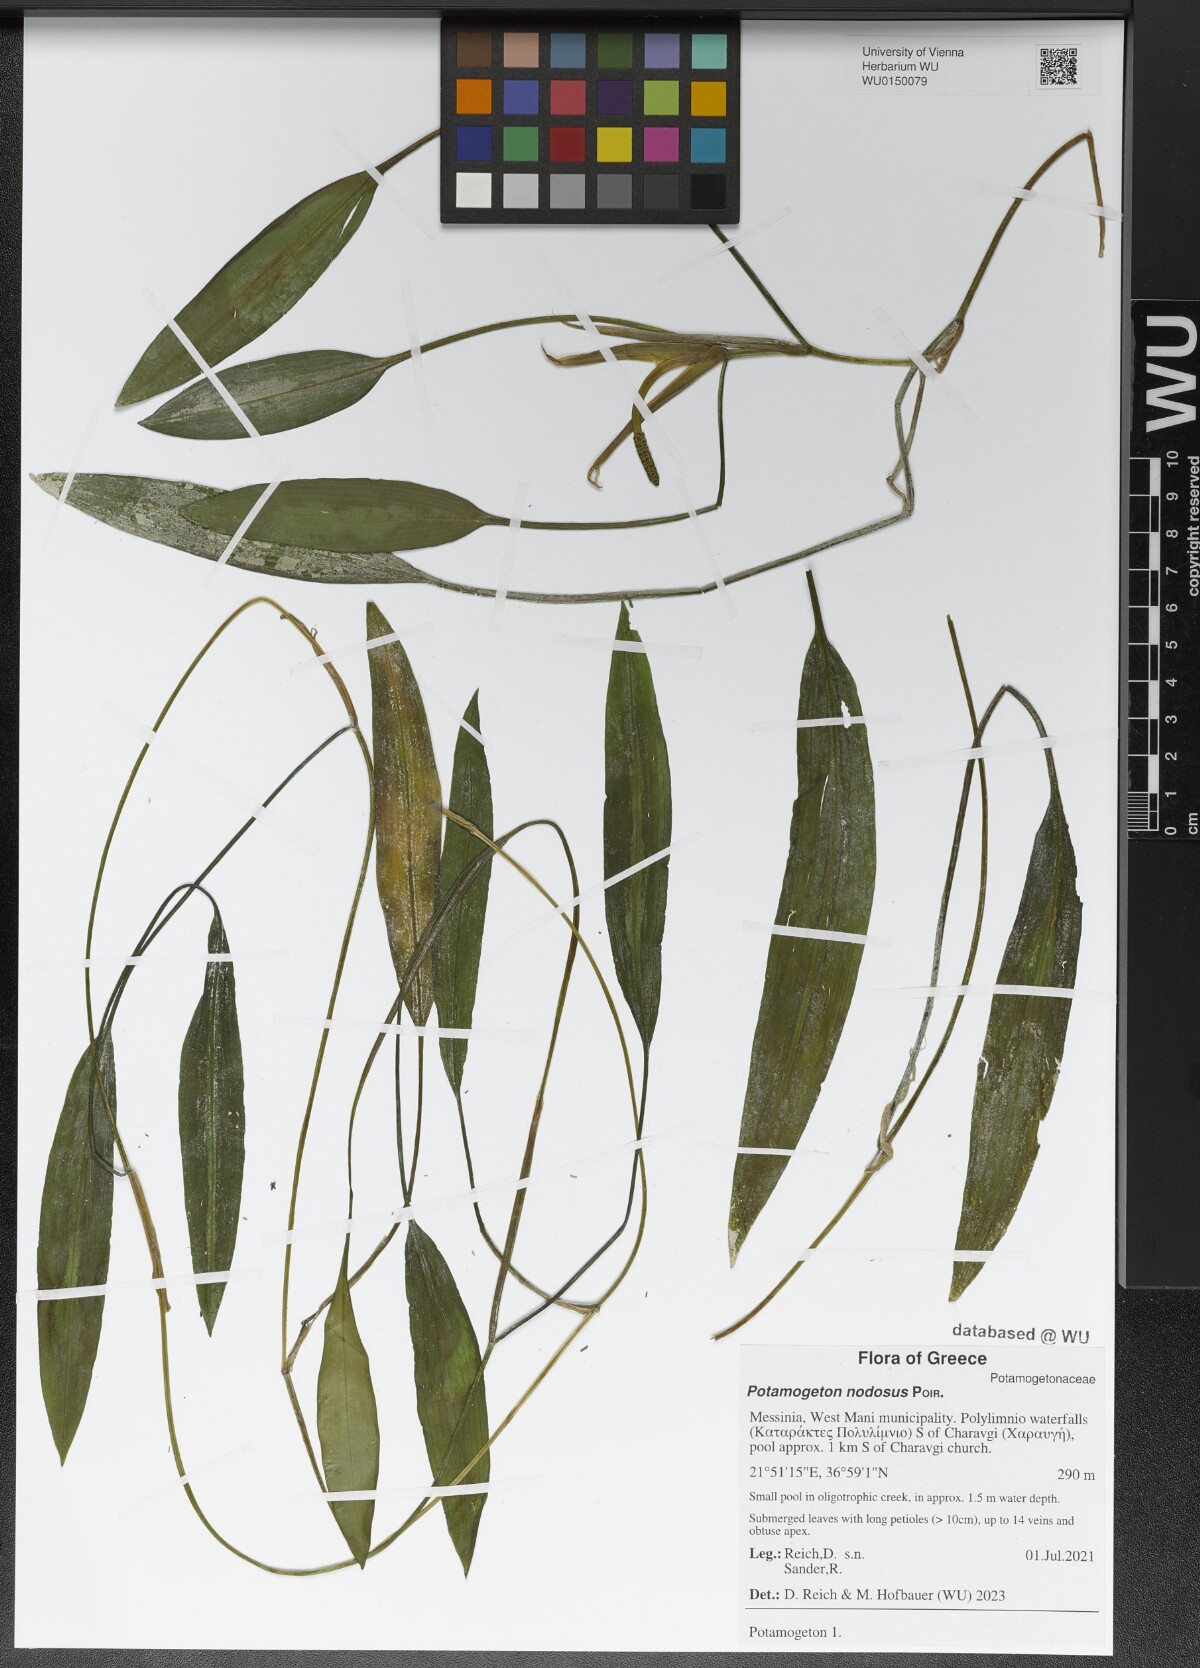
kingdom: Plantae
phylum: Tracheophyta
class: Liliopsida
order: Alismatales
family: Potamogetonaceae
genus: Potamogeton
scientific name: Potamogeton nodosus
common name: Loddon pondweed
